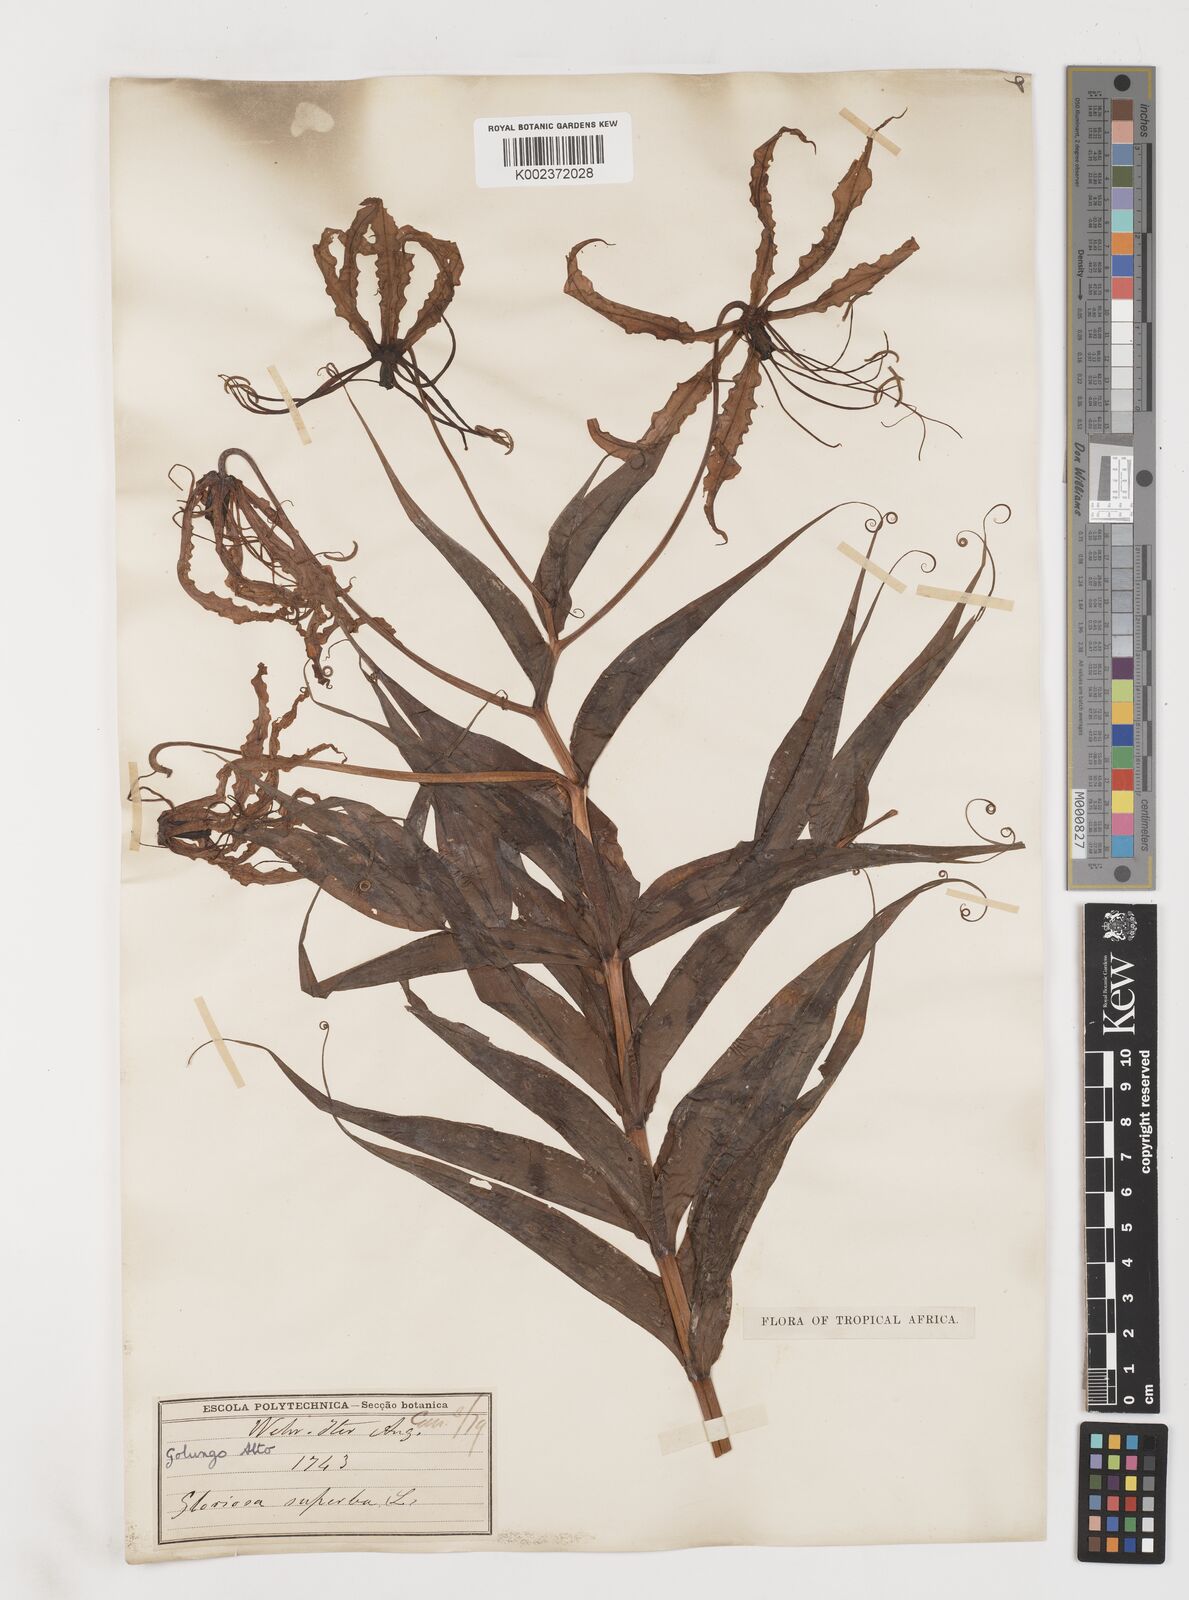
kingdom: Plantae
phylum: Tracheophyta
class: Liliopsida
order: Liliales
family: Colchicaceae
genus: Gloriosa
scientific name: Gloriosa superba
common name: Flame lily
